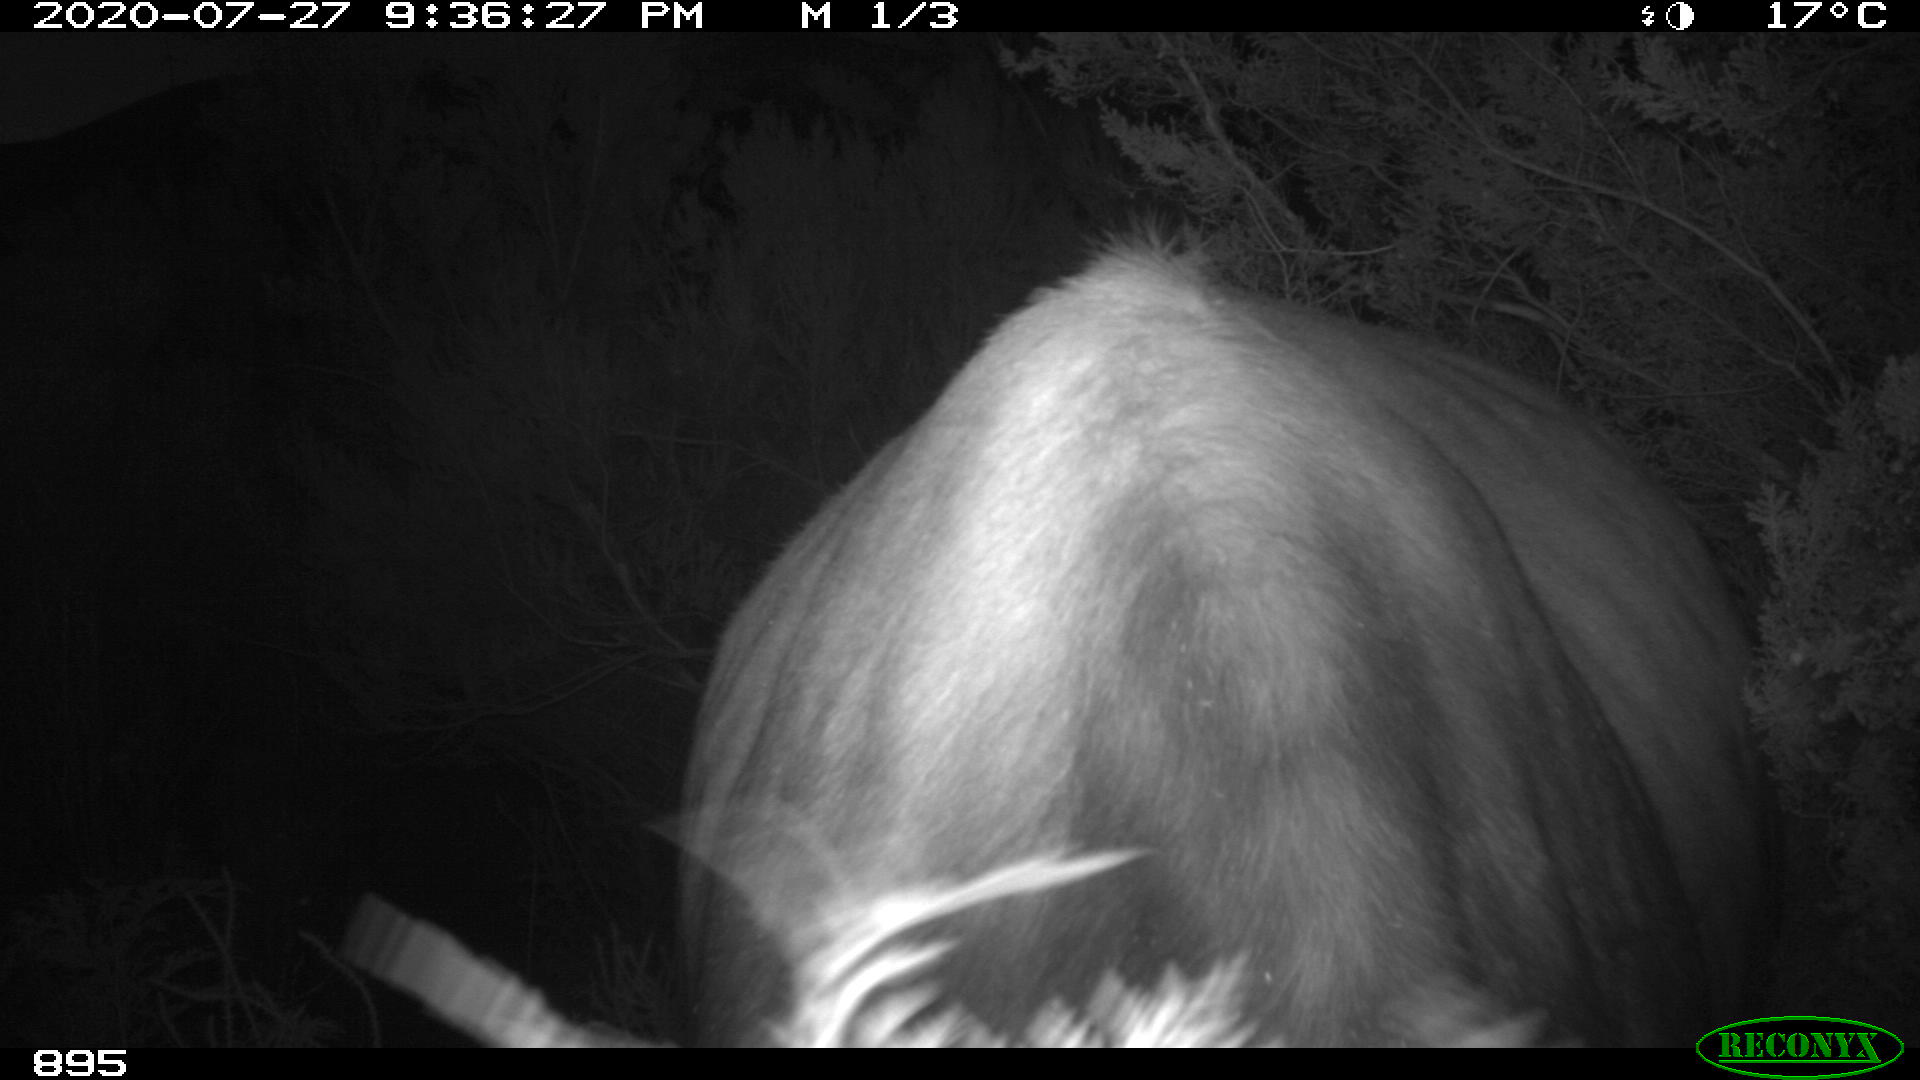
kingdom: Animalia
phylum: Chordata
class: Mammalia
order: Artiodactyla
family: Bovidae
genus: Bos
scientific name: Bos taurus
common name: Domesticated cattle
